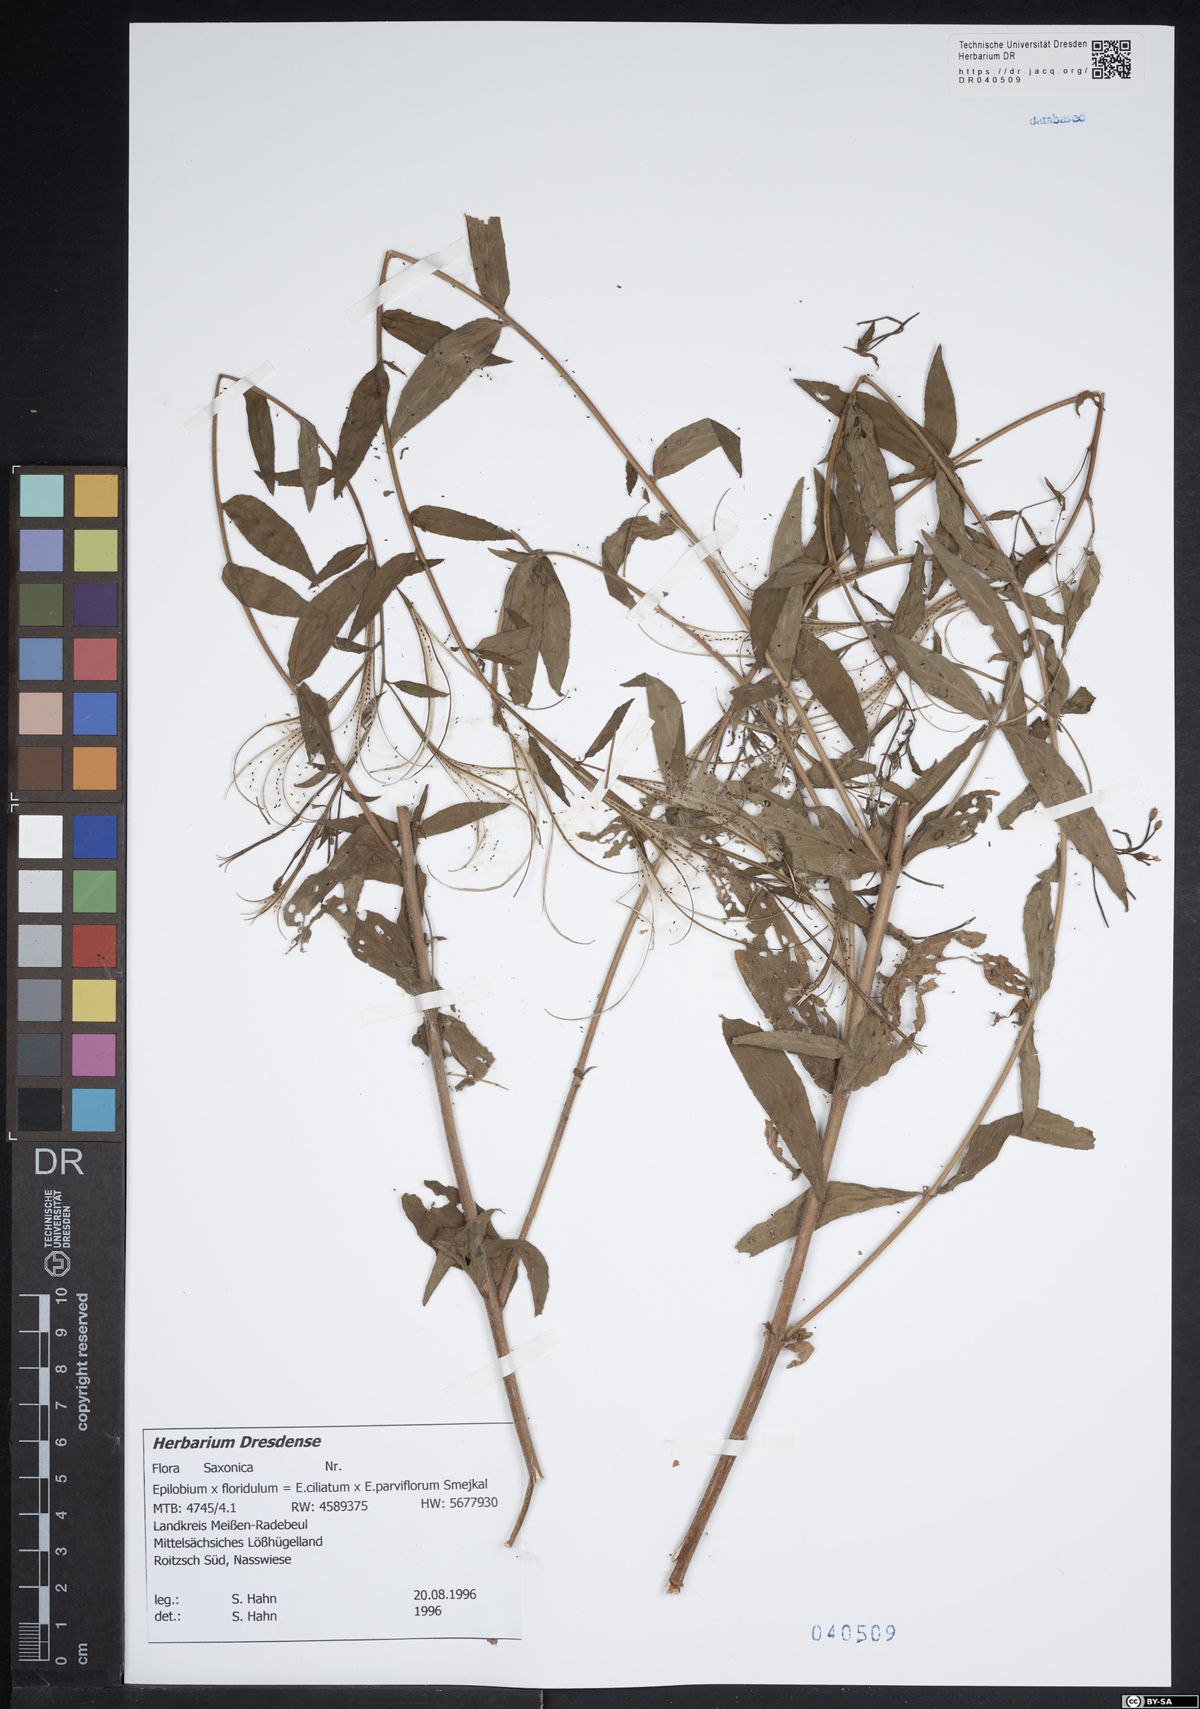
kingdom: Plantae
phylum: Tracheophyta
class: Magnoliopsida
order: Myrtales
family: Onagraceae
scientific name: Onagraceae
